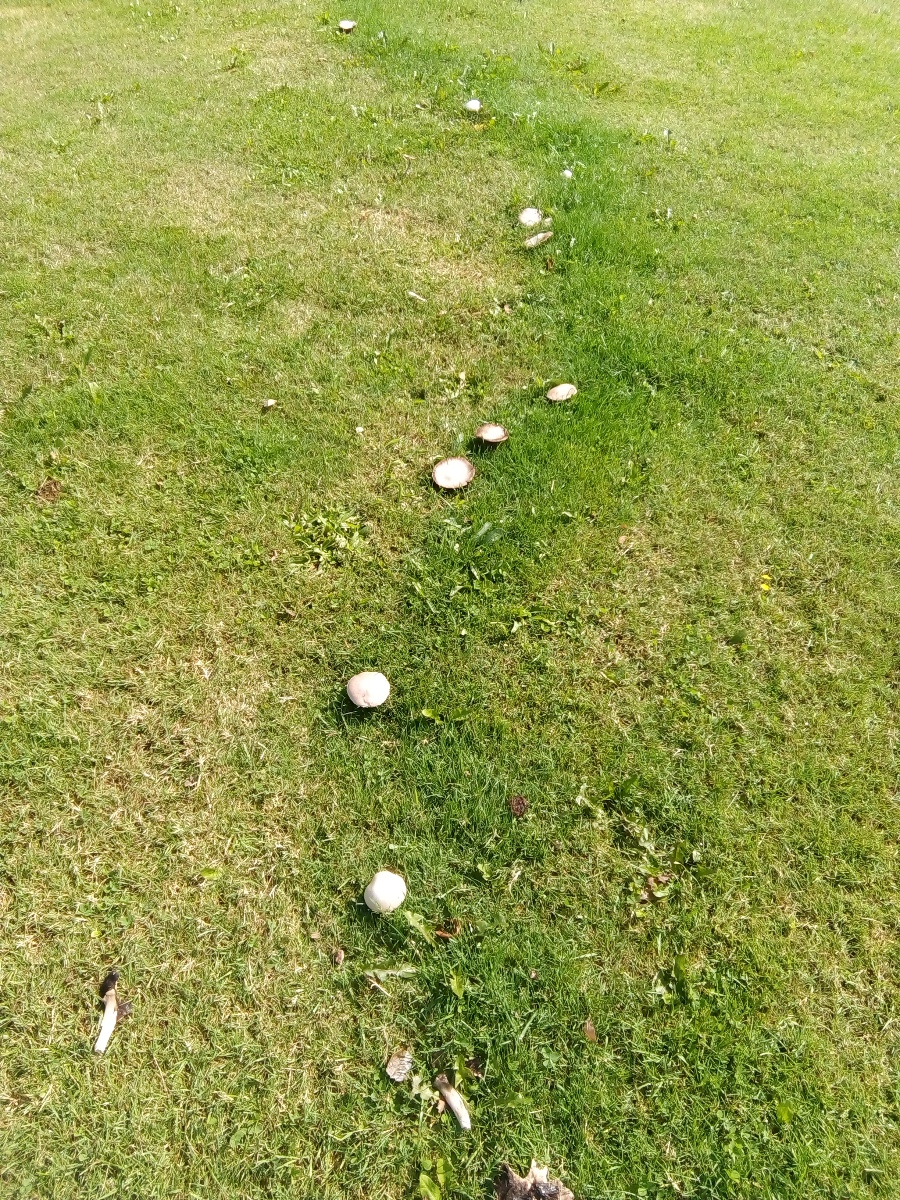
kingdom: Fungi
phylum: Basidiomycota
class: Agaricomycetes
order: Agaricales
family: Agaricaceae
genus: Agaricus
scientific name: Agaricus campestris
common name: mark-champignon
